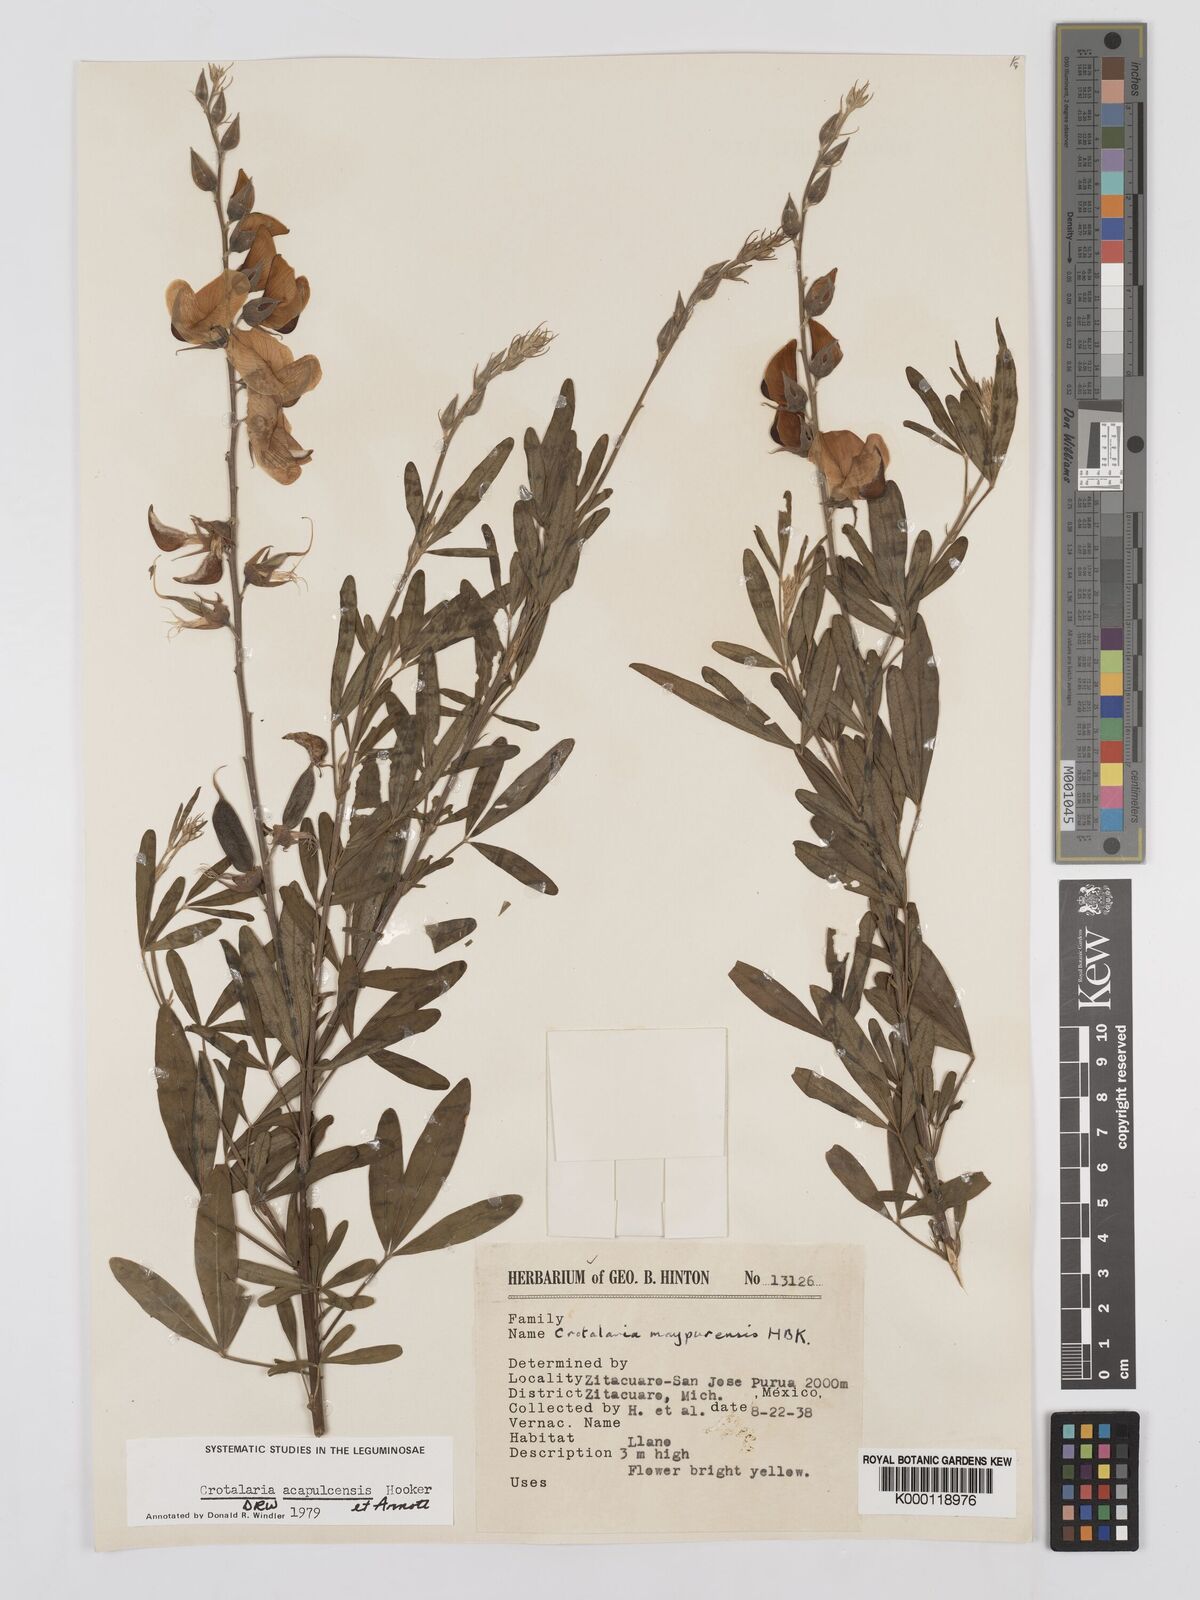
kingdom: Plantae
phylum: Tracheophyta
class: Magnoliopsida
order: Fabales
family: Fabaceae
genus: Crotalaria
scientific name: Crotalaria maypurensis
